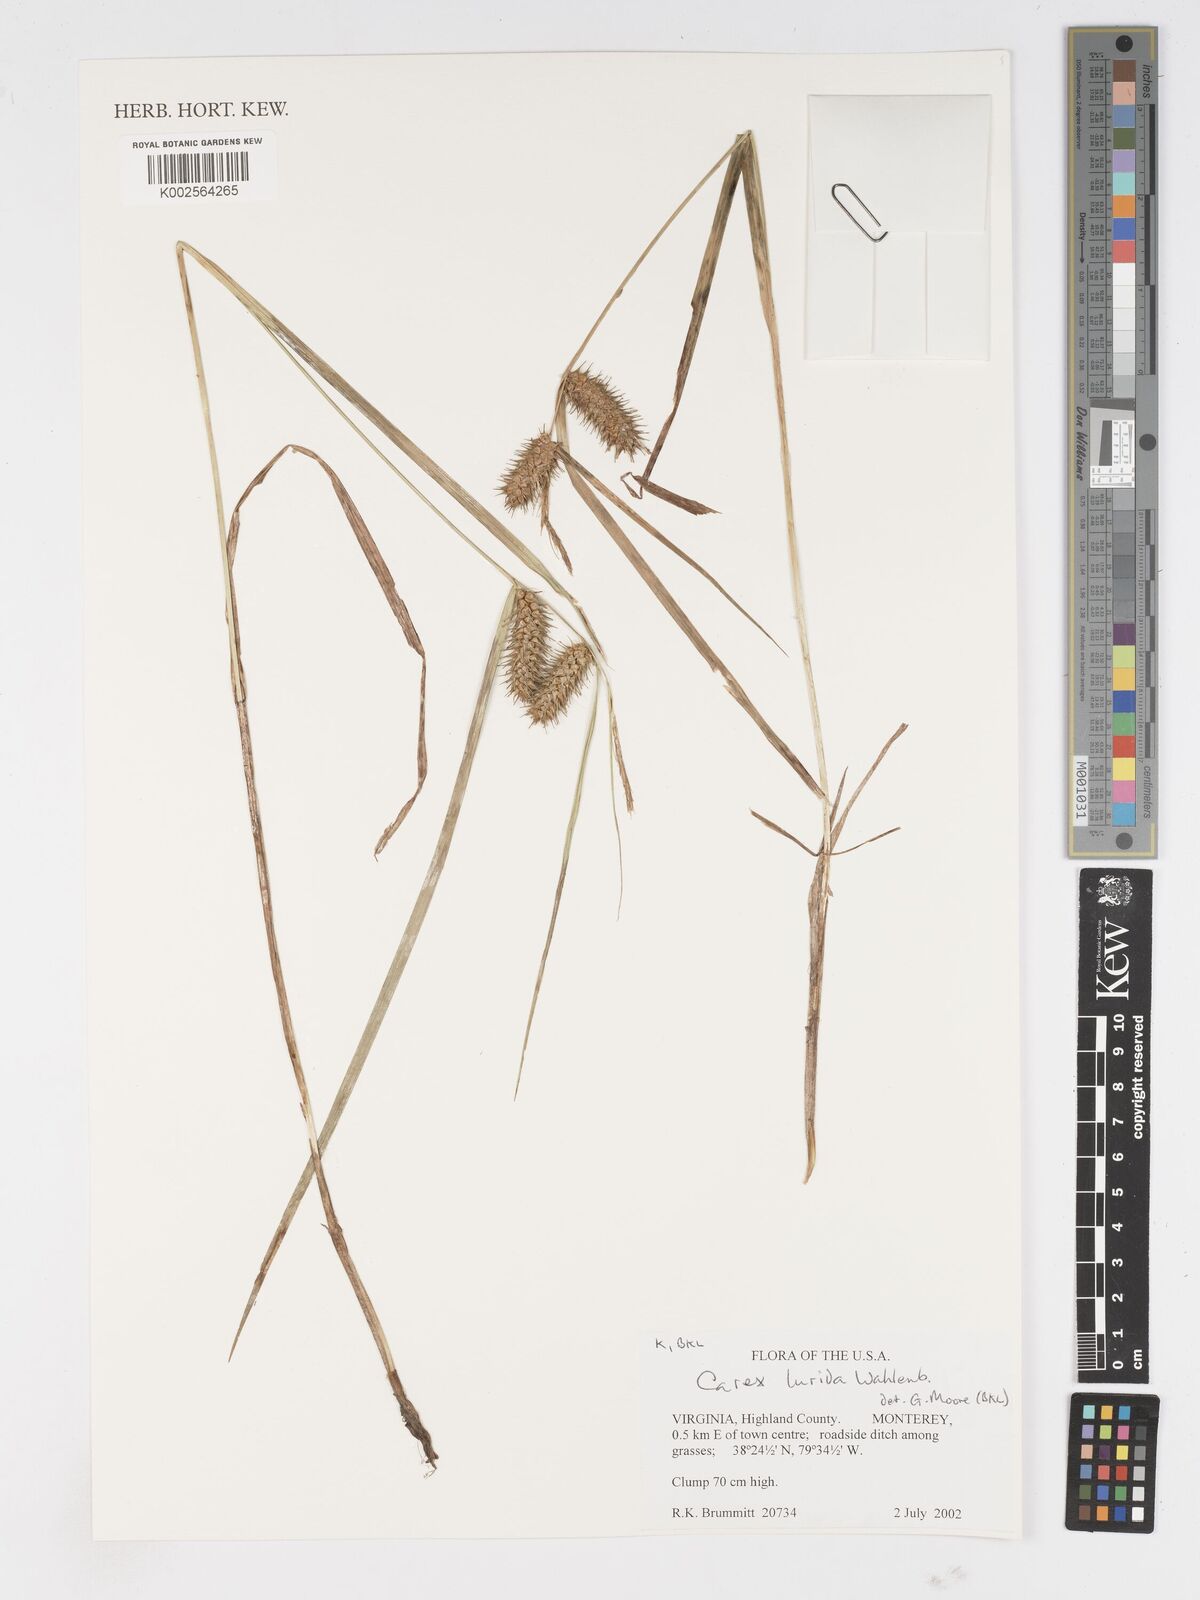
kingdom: Plantae
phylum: Tracheophyta
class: Liliopsida
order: Poales
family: Cyperaceae
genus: Carex
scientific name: Carex lurida
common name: Sallow sedge
